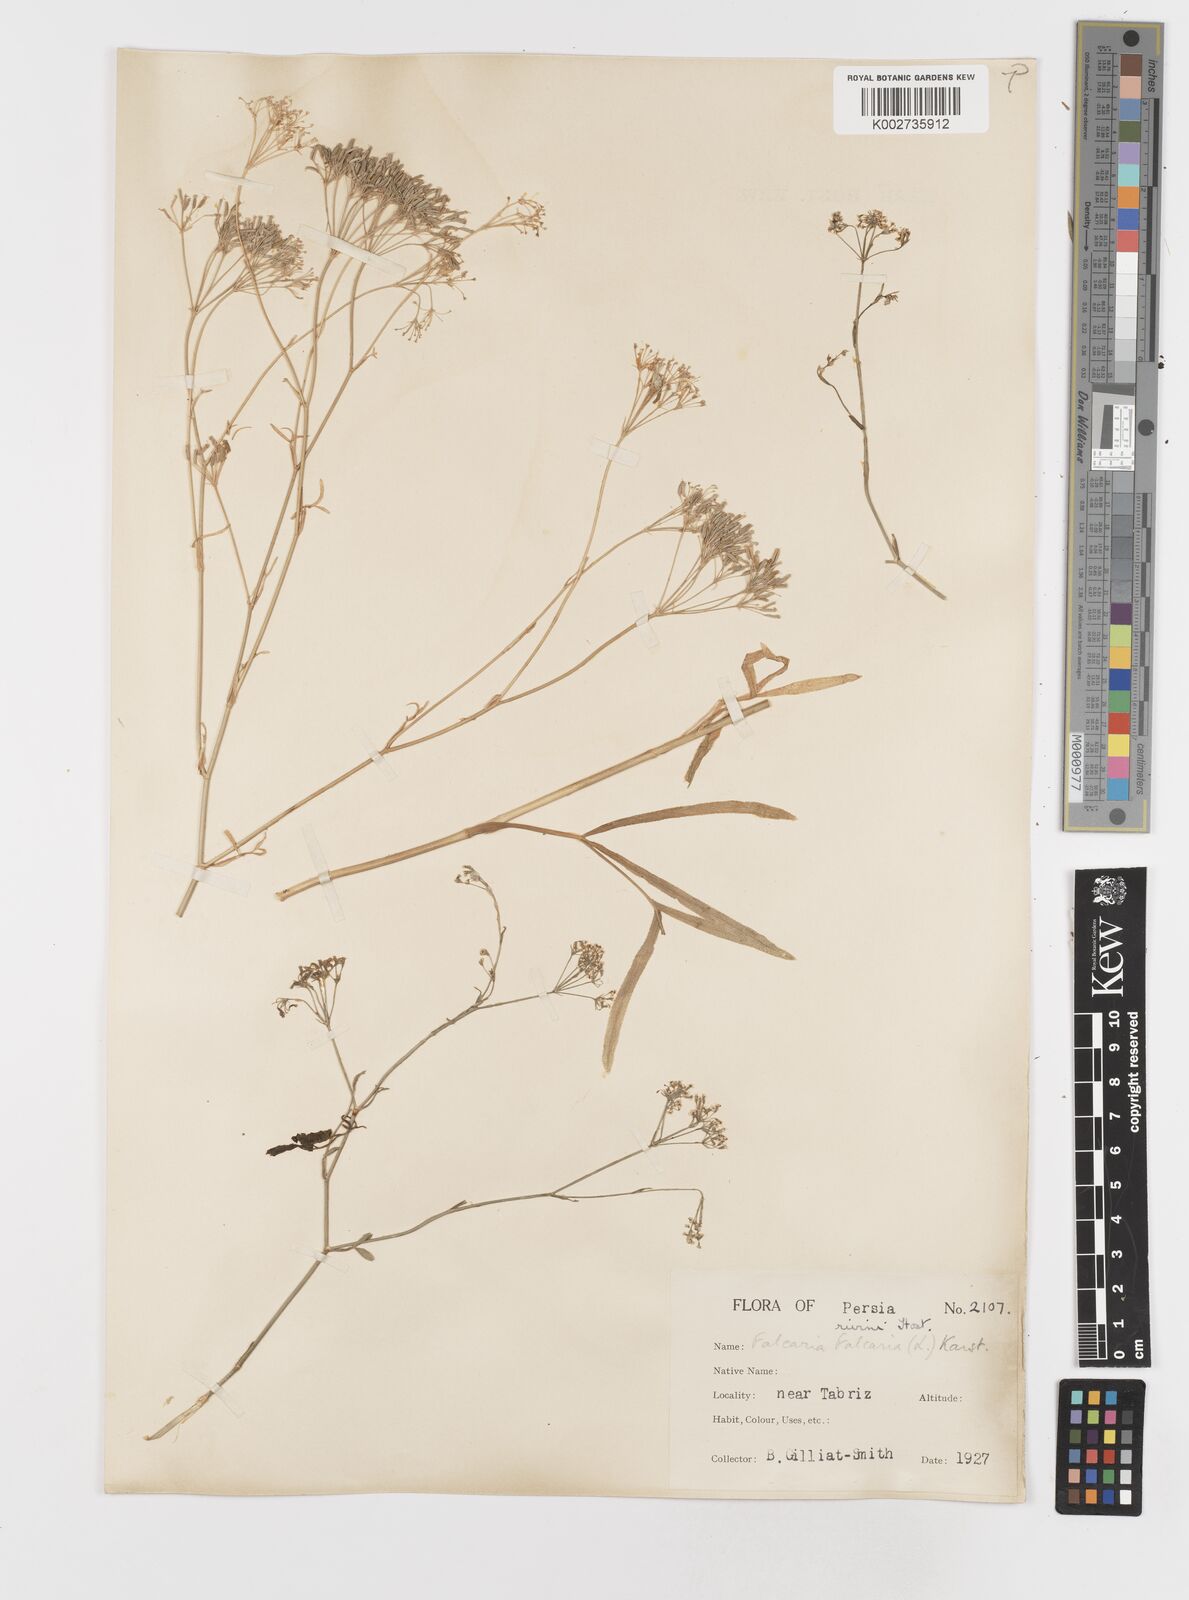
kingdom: Plantae
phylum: Tracheophyta
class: Magnoliopsida
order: Apiales
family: Apiaceae
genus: Falcaria
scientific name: Falcaria vulgaris
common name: Longleaf
